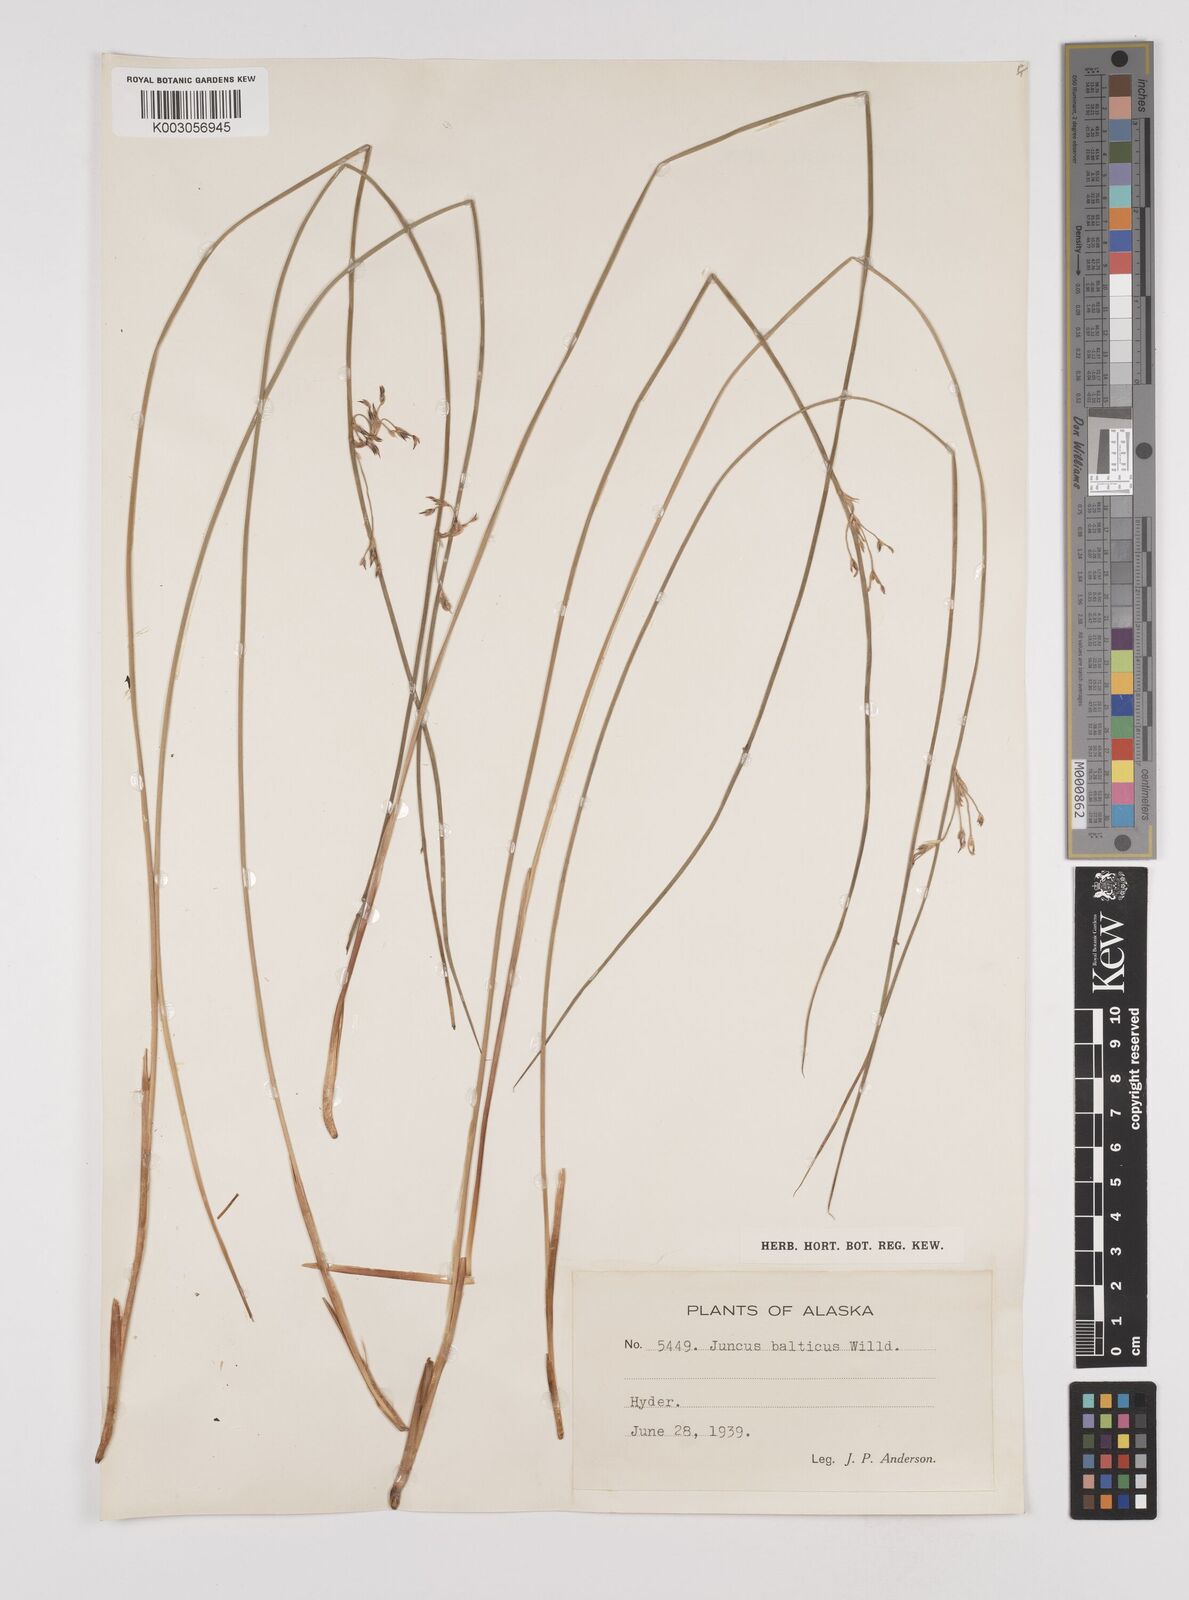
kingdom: Plantae
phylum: Tracheophyta
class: Liliopsida
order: Poales
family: Juncaceae
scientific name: Juncaceae
